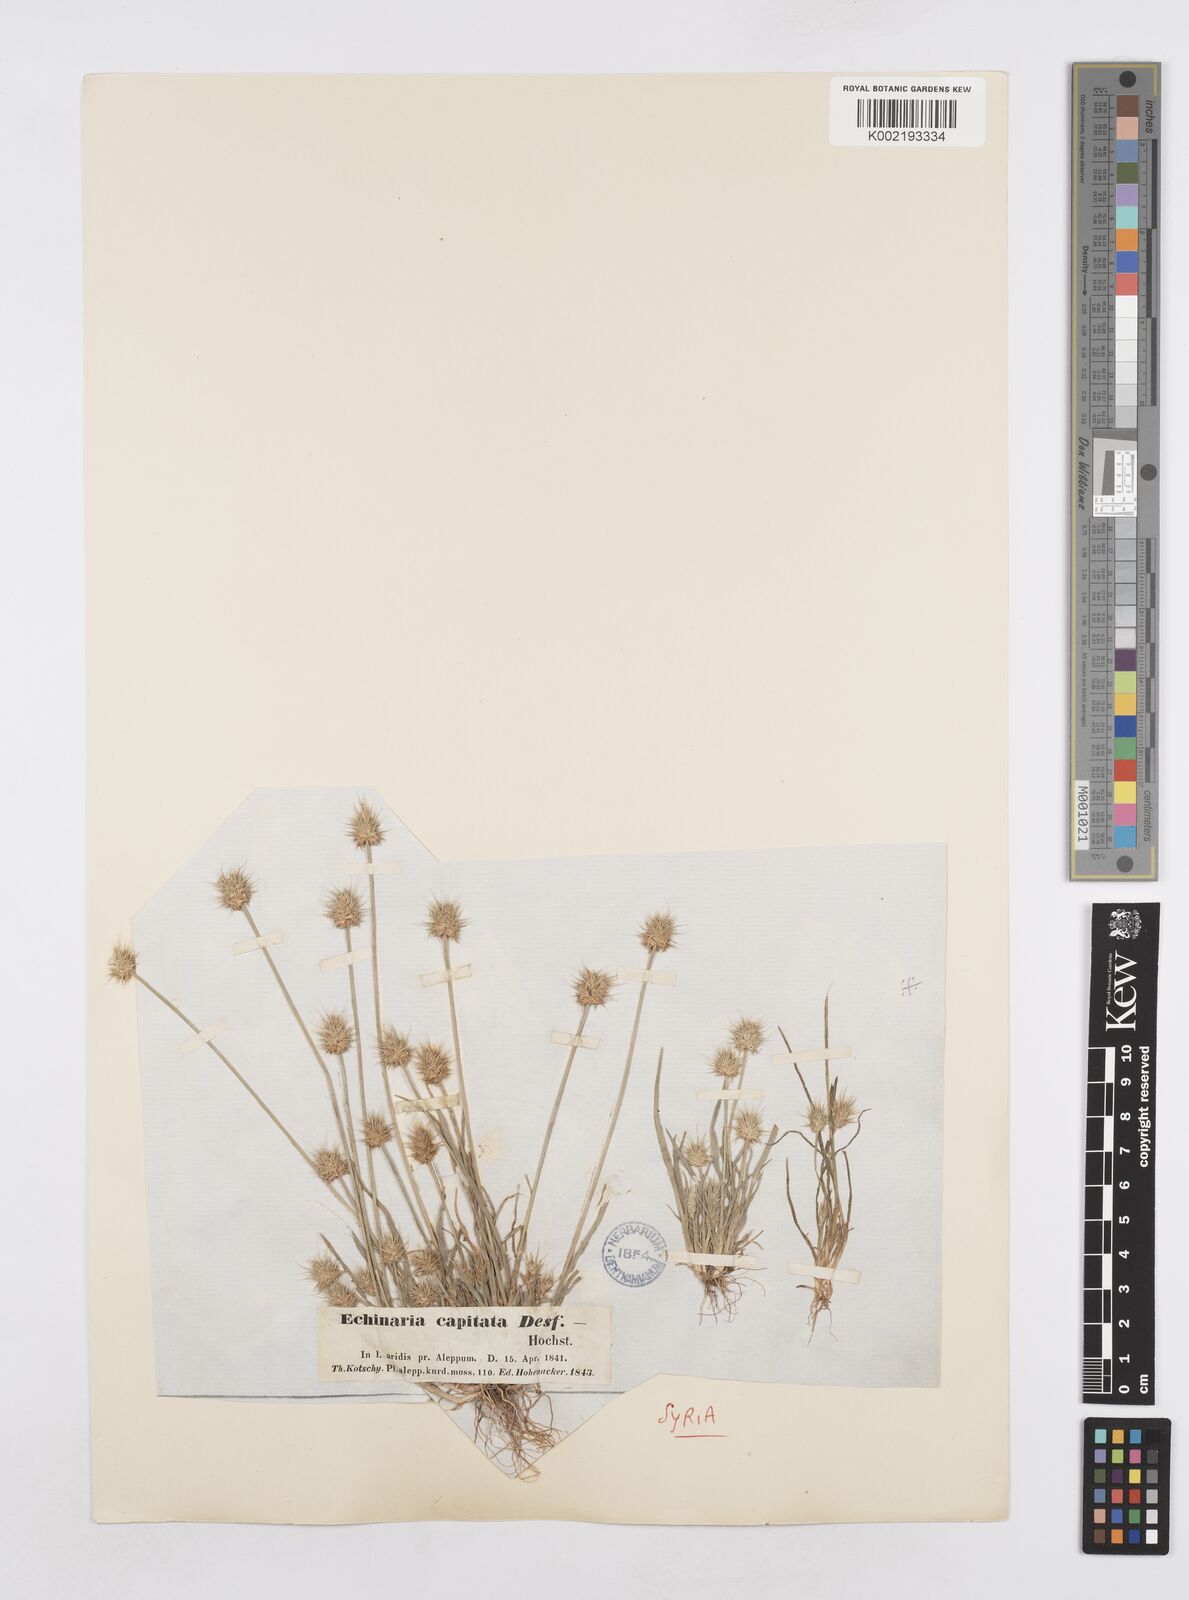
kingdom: Plantae
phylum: Tracheophyta
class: Liliopsida
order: Poales
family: Poaceae
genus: Echinaria
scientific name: Echinaria capitata
